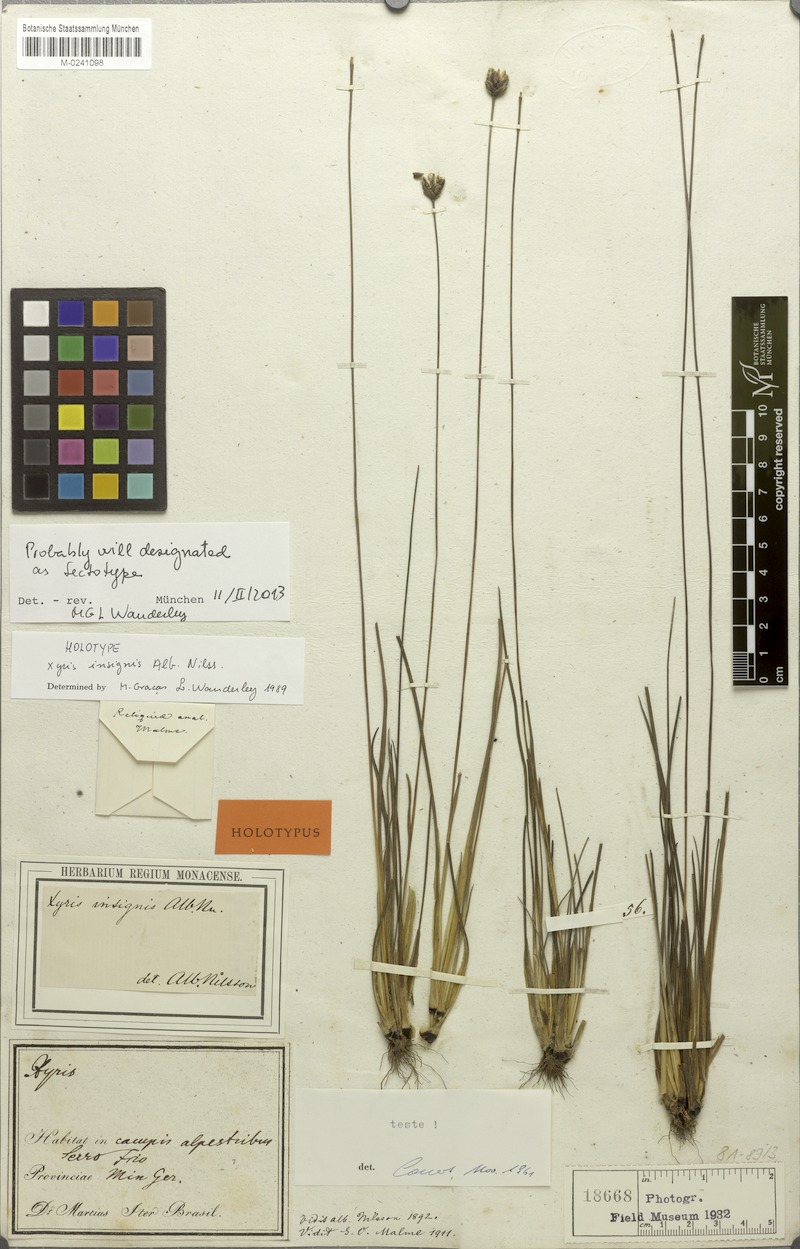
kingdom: Plantae
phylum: Tracheophyta
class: Liliopsida
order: Poales
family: Xyridaceae
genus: Xyris
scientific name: Xyris insignis
